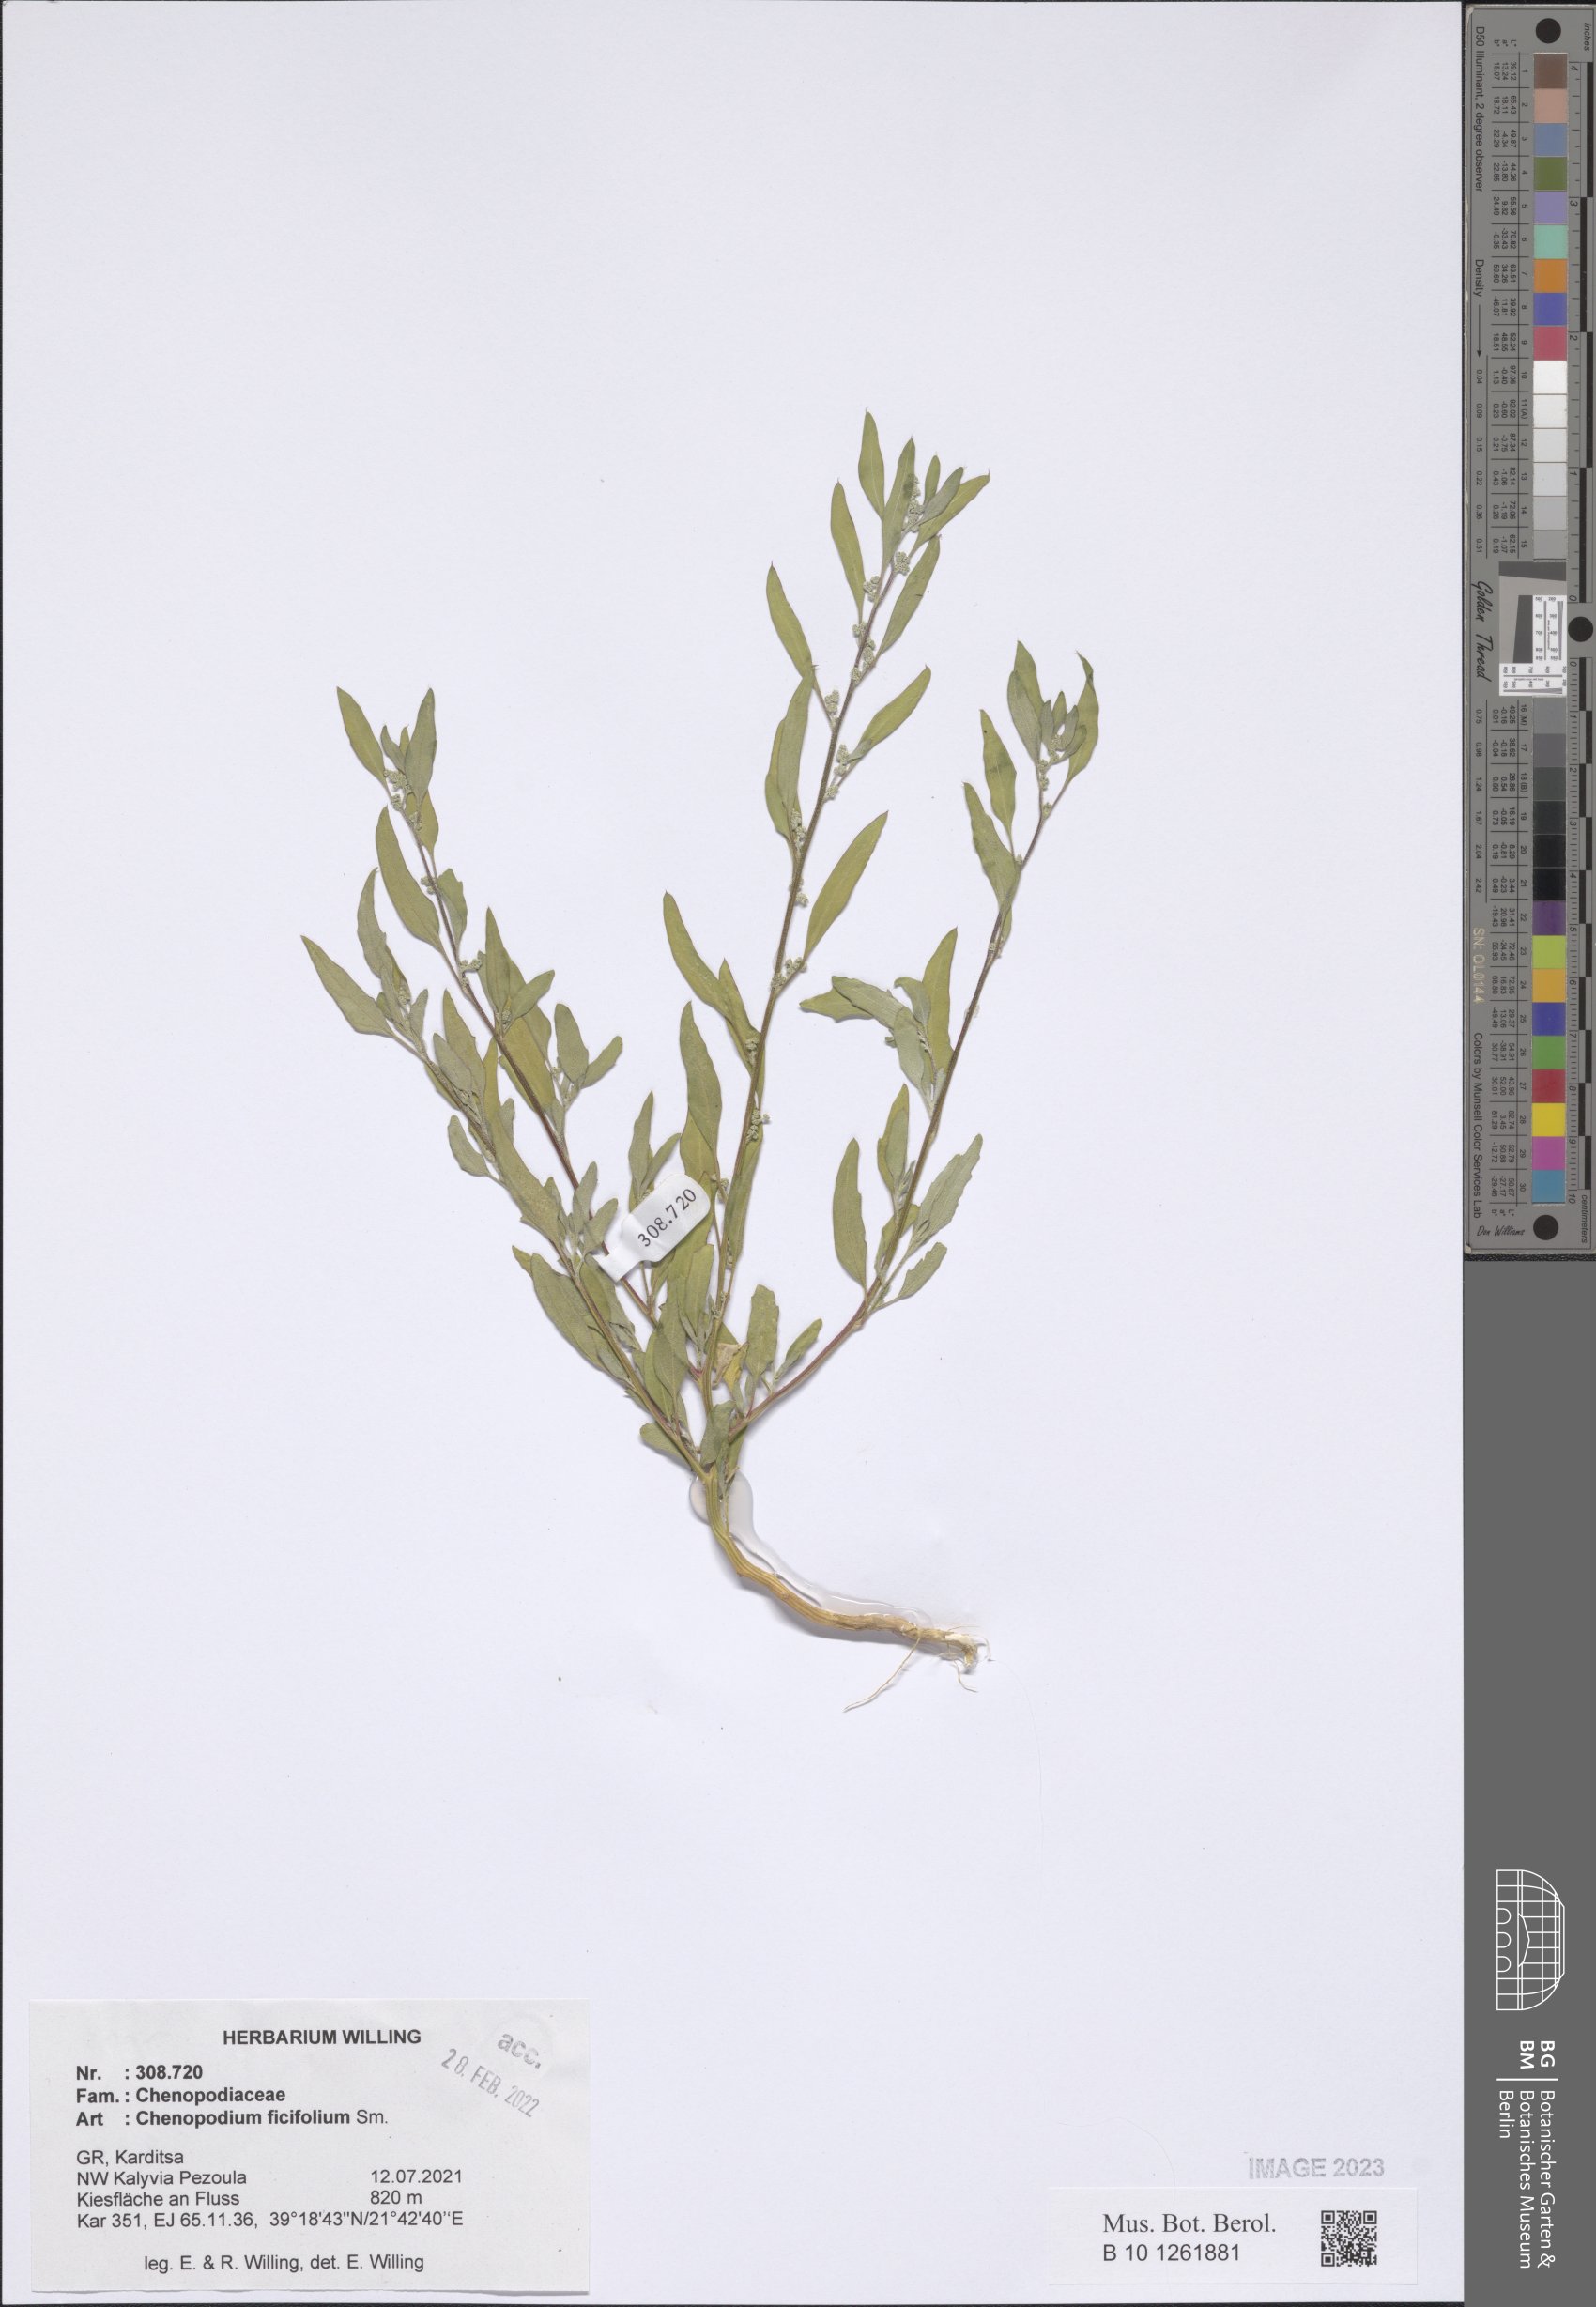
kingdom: Plantae
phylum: Tracheophyta
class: Magnoliopsida
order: Caryophyllales
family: Amaranthaceae
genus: Chenopodium
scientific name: Chenopodium ficifolium
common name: Fig-leaved goosefoot
